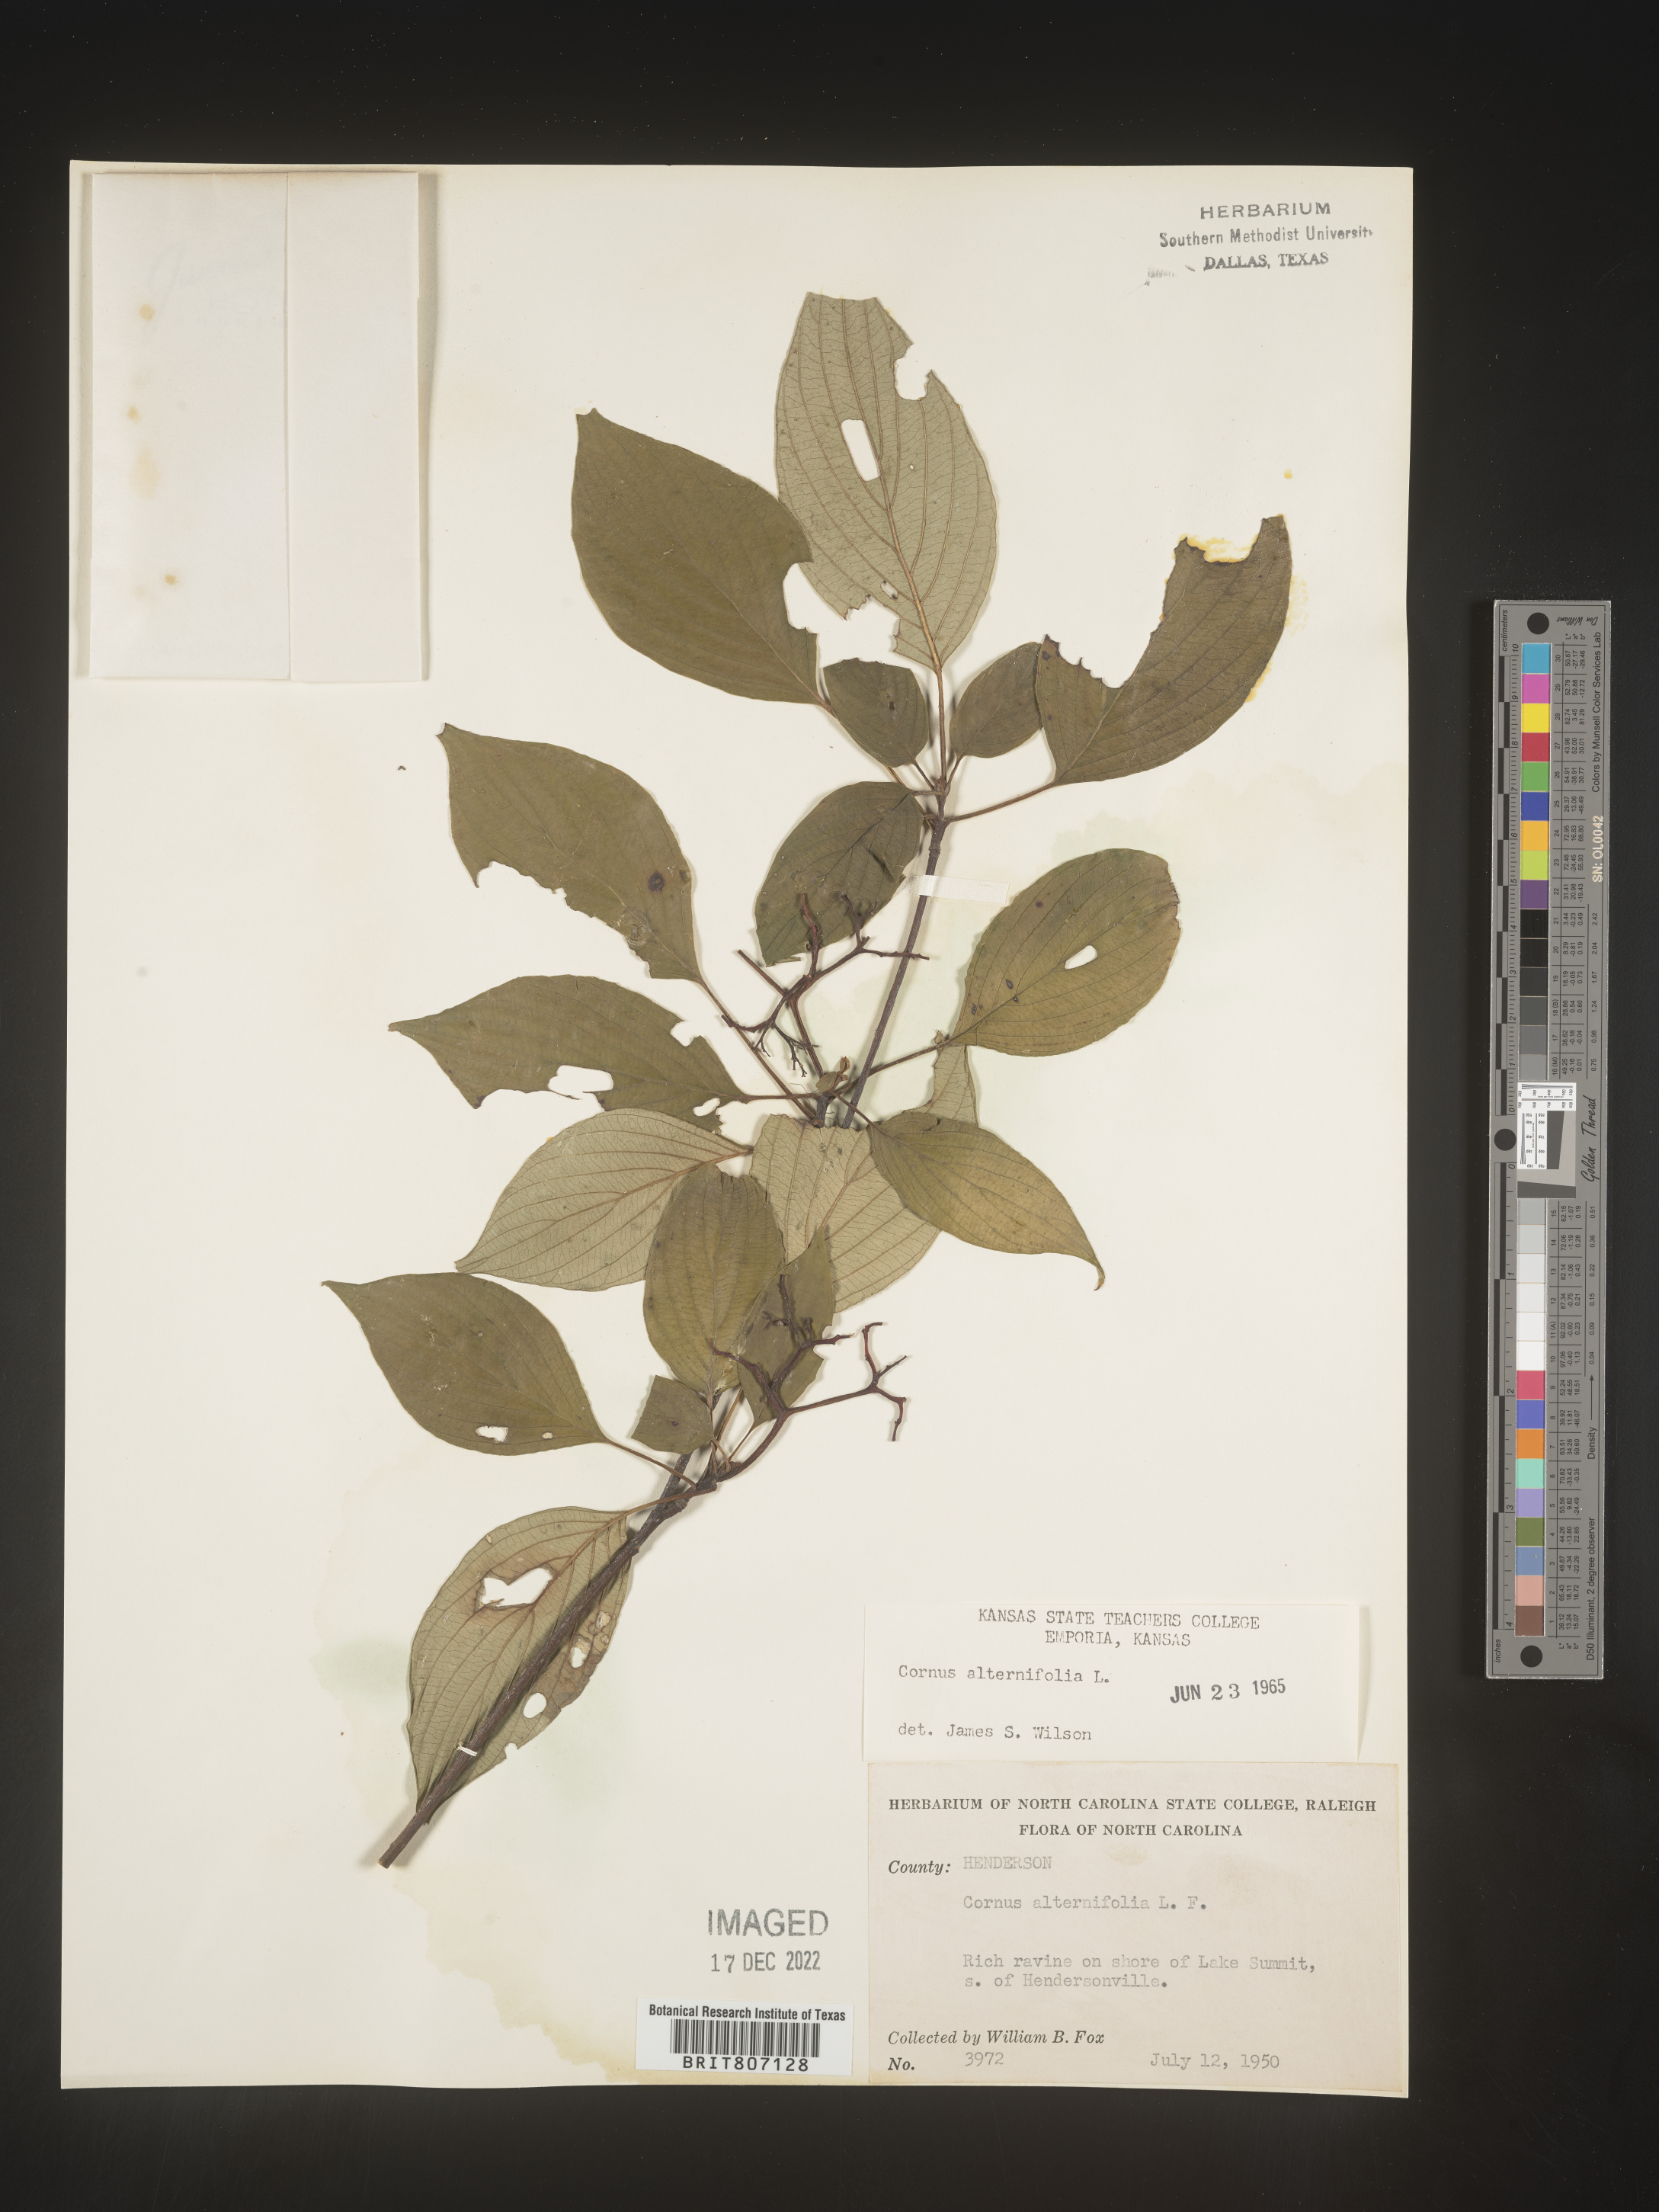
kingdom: Plantae
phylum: Tracheophyta
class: Magnoliopsida
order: Cornales
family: Cornaceae
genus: Cornus
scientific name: Cornus alternifolia
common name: Pagoda dogwood
